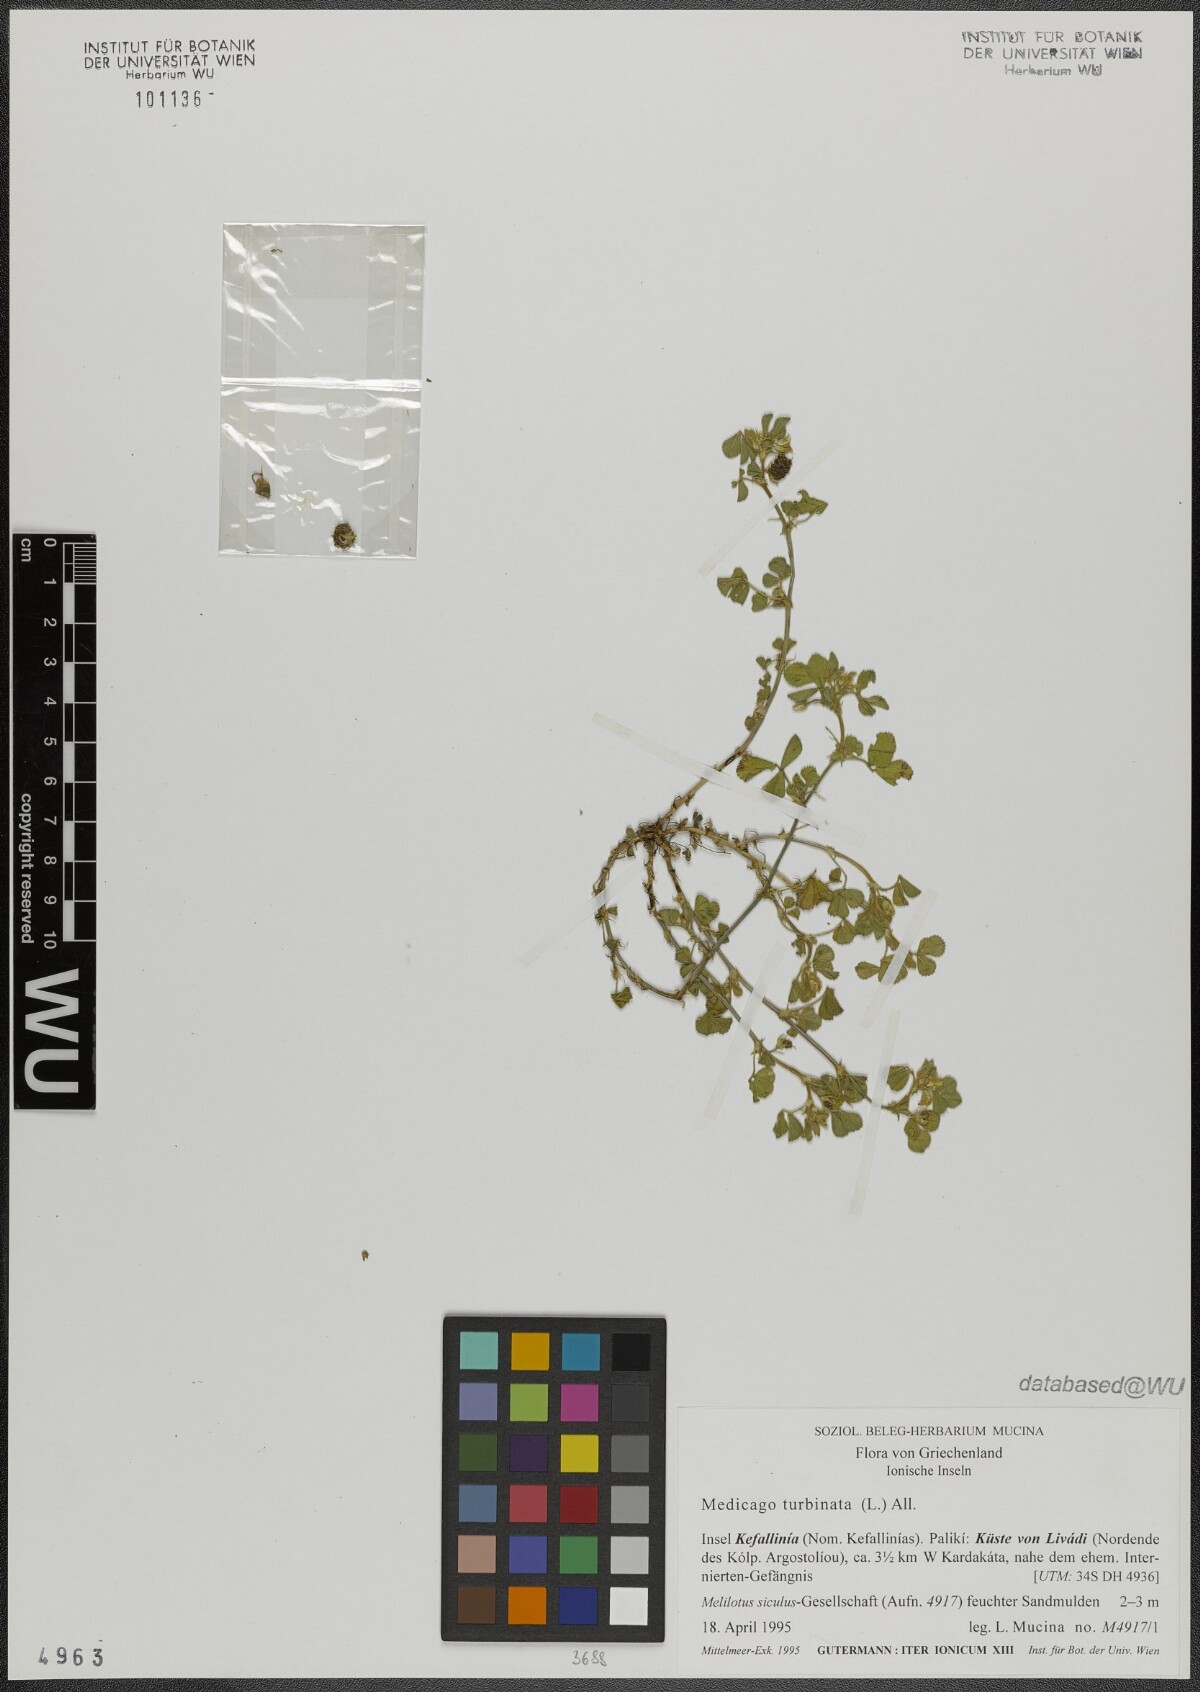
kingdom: Plantae
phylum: Tracheophyta
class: Magnoliopsida
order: Fabales
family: Fabaceae
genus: Medicago
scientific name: Medicago turbinata
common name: Southern medick
